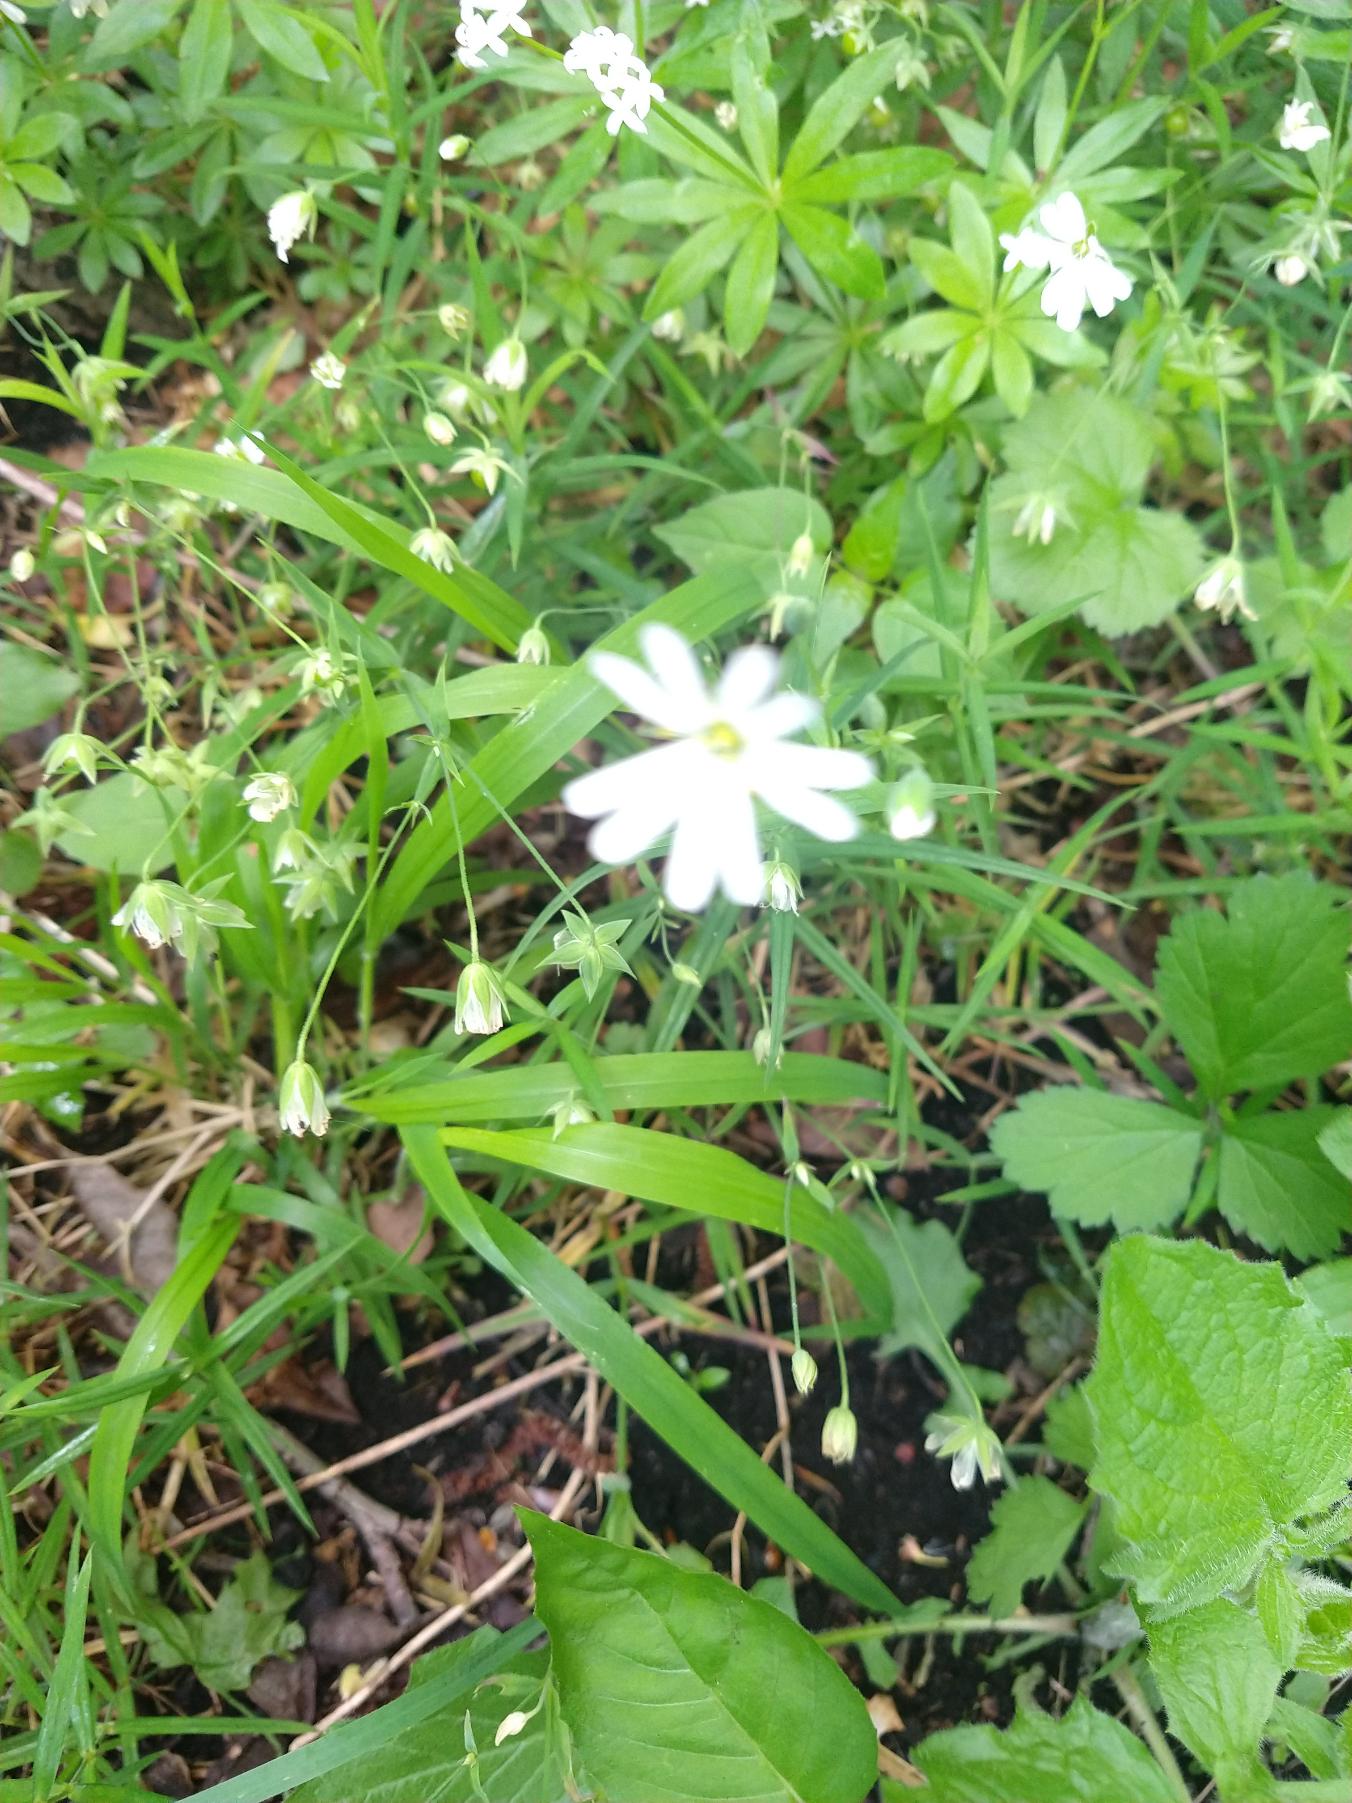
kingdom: Plantae
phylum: Tracheophyta
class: Magnoliopsida
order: Caryophyllales
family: Caryophyllaceae
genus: Rabelera
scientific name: Rabelera holostea
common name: Stor fladstjerne
